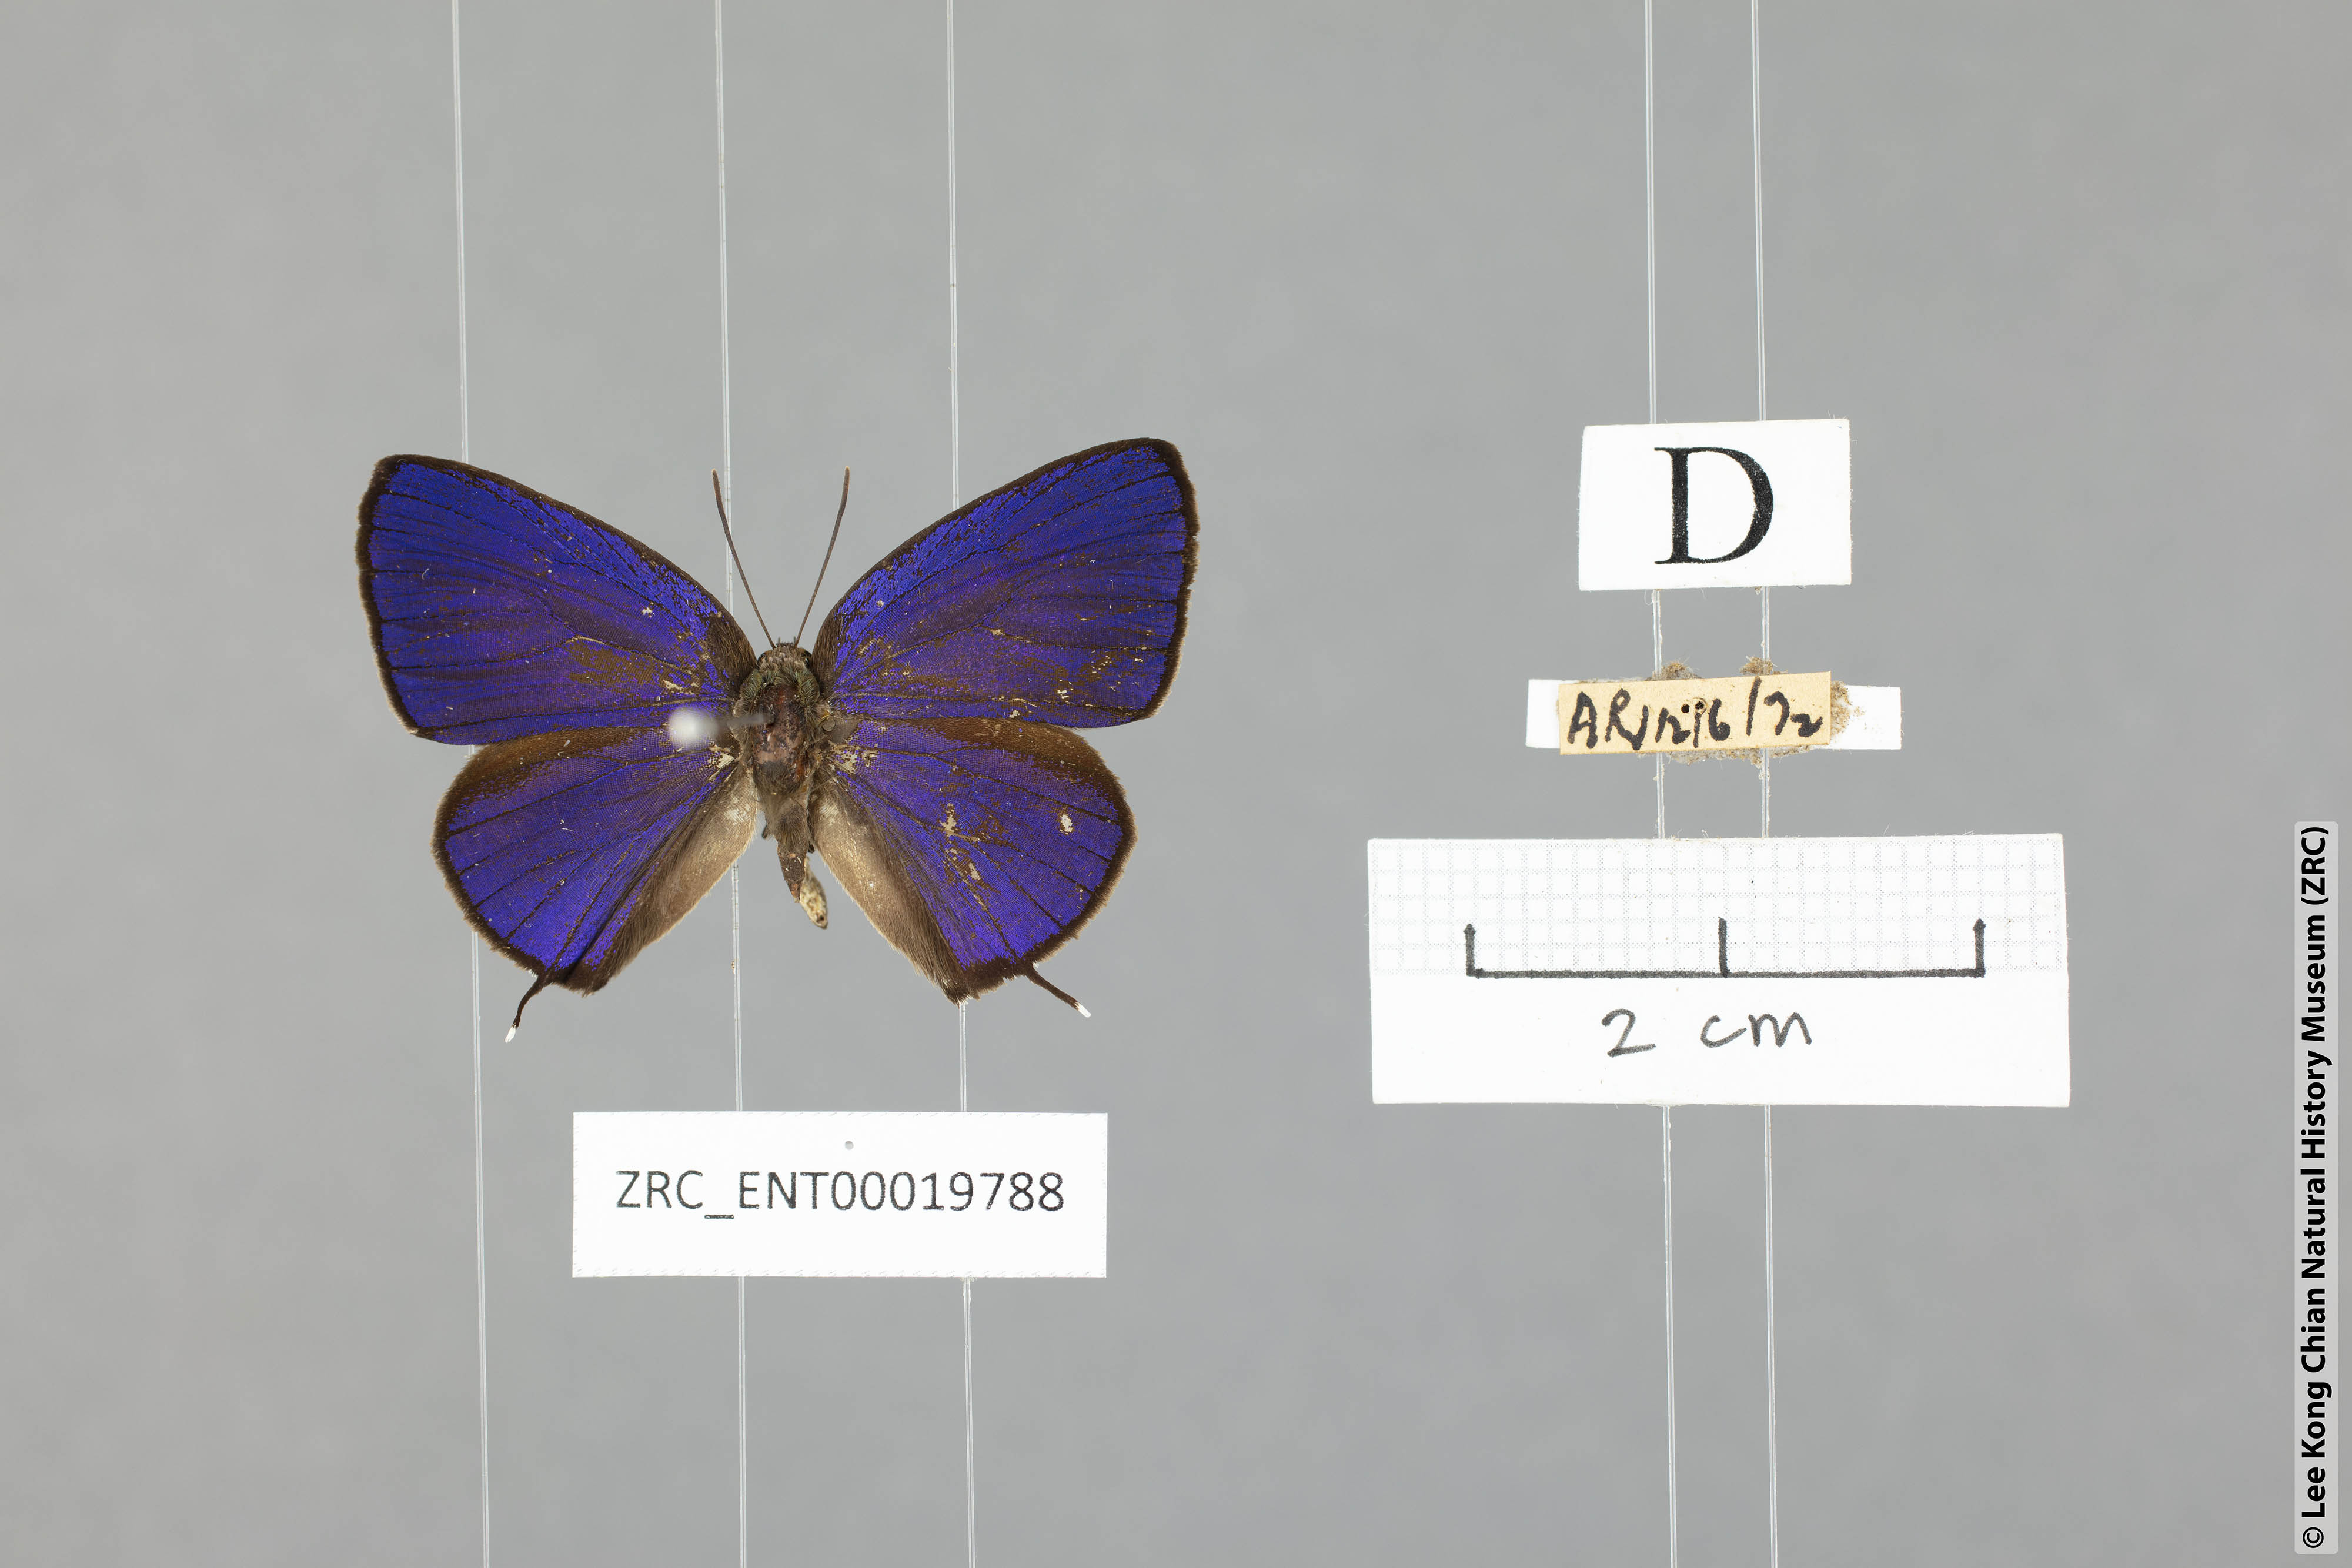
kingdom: Animalia
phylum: Arthropoda
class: Insecta
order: Lepidoptera
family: Lycaenidae
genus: Arhopala
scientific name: Arhopala phaenops
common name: Sumatran oakblue
